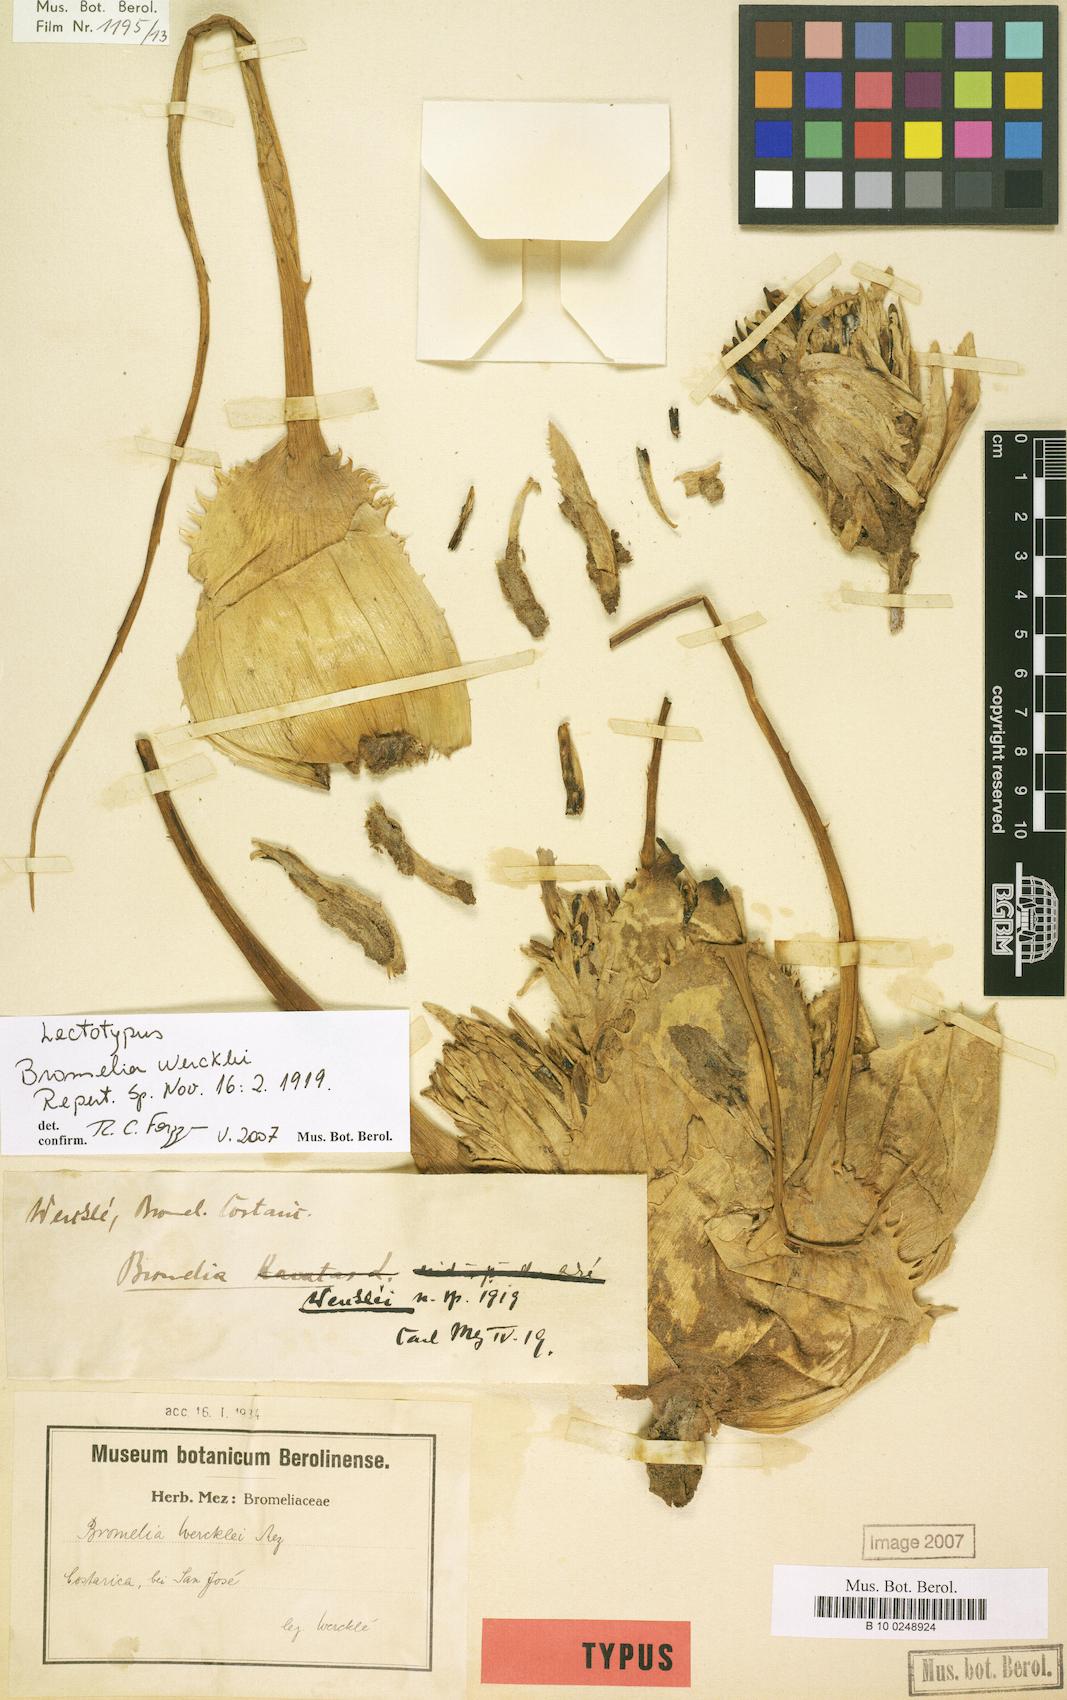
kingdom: Plantae
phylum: Tracheophyta
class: Liliopsida
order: Poales
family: Bromeliaceae
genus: Bromelia
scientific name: Bromelia hemisphaerica
